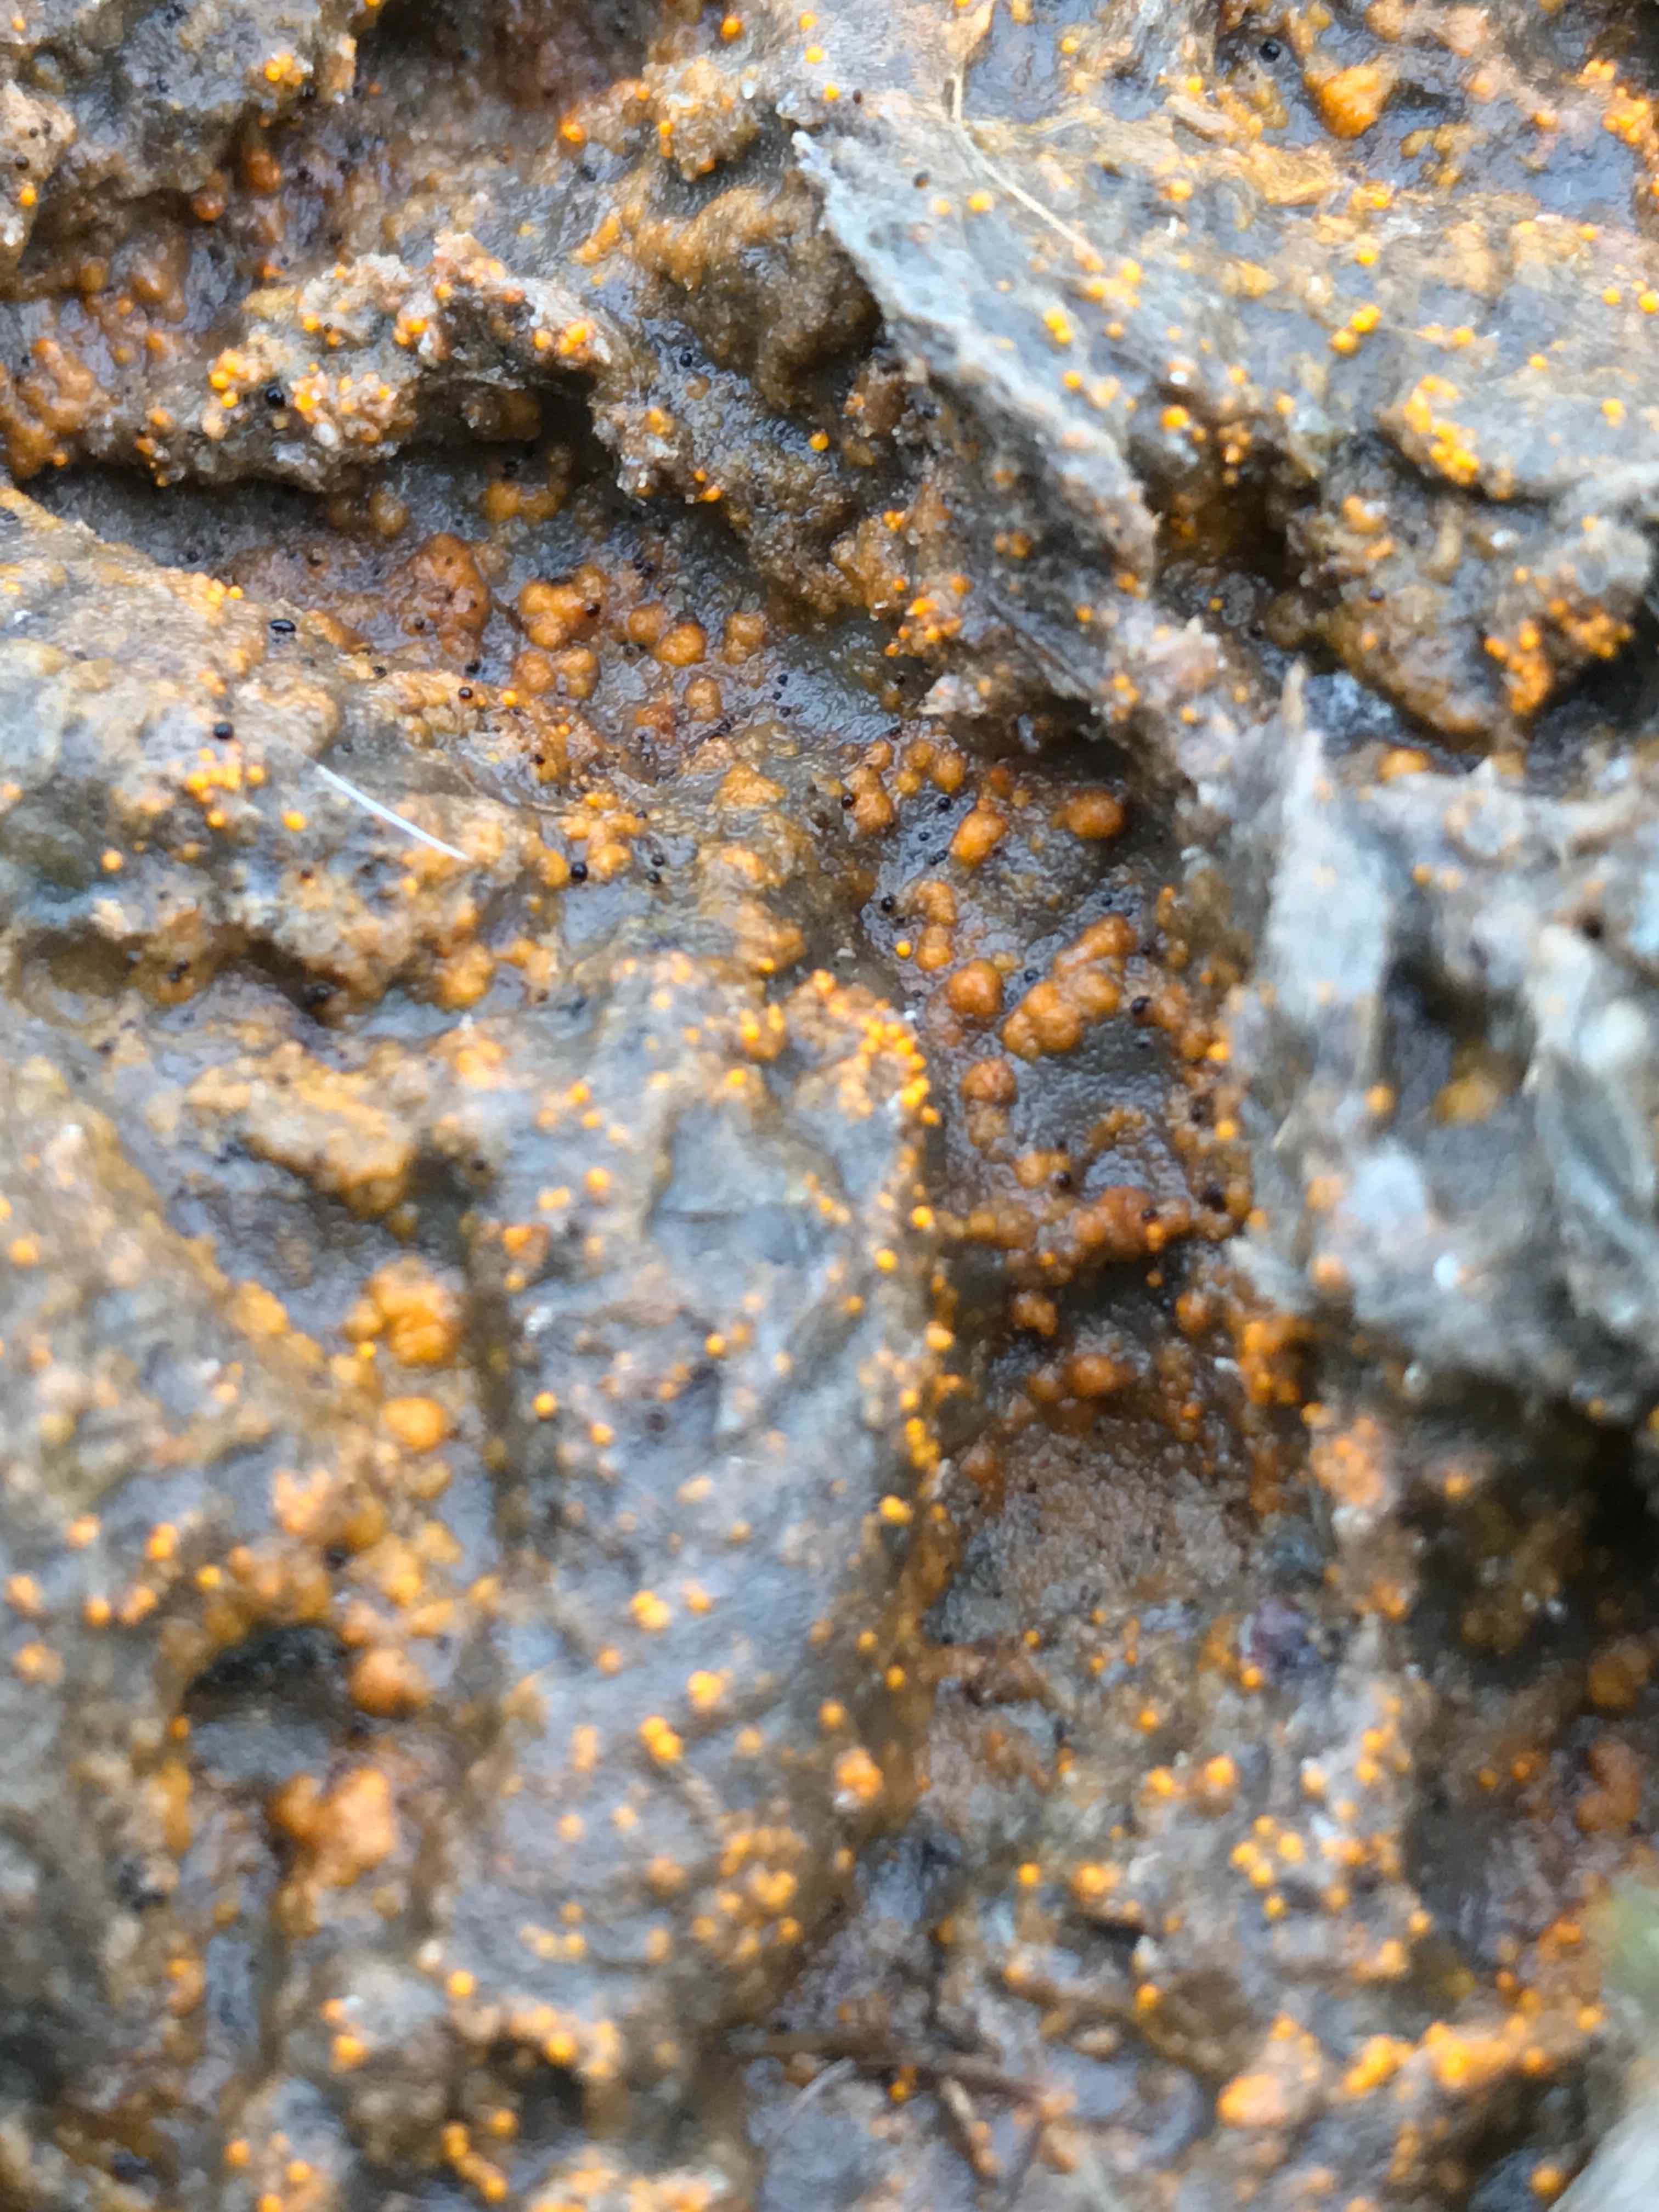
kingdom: Fungi
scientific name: Fungi
